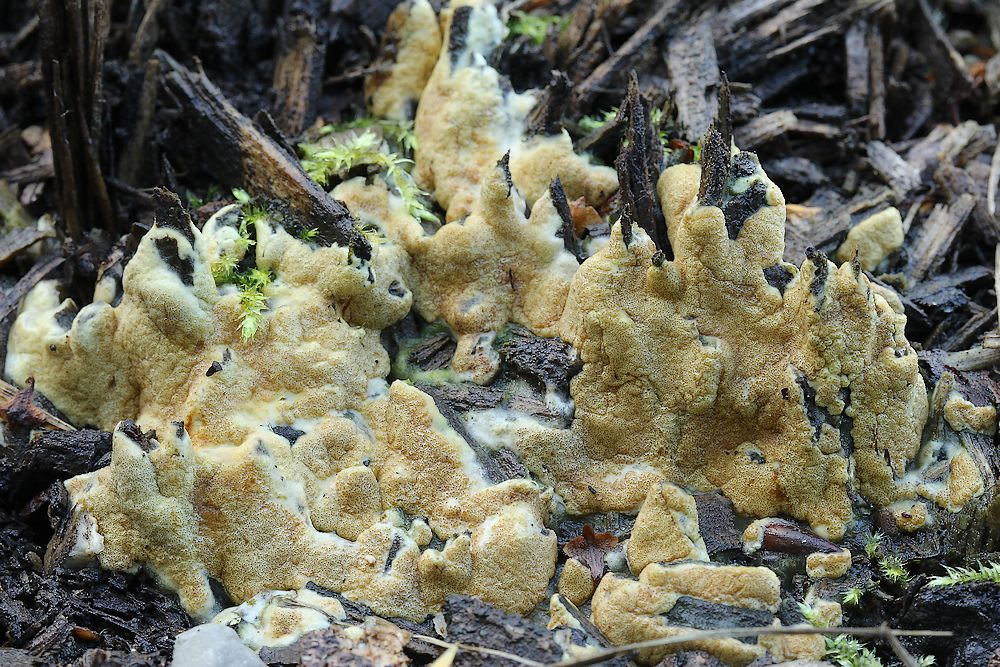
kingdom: Fungi
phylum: Ascomycota
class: Sordariomycetes
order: Hypocreales
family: Hypocreaceae
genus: Trichoderma
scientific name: Trichoderma citrinum
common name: udbredt kødkerne
